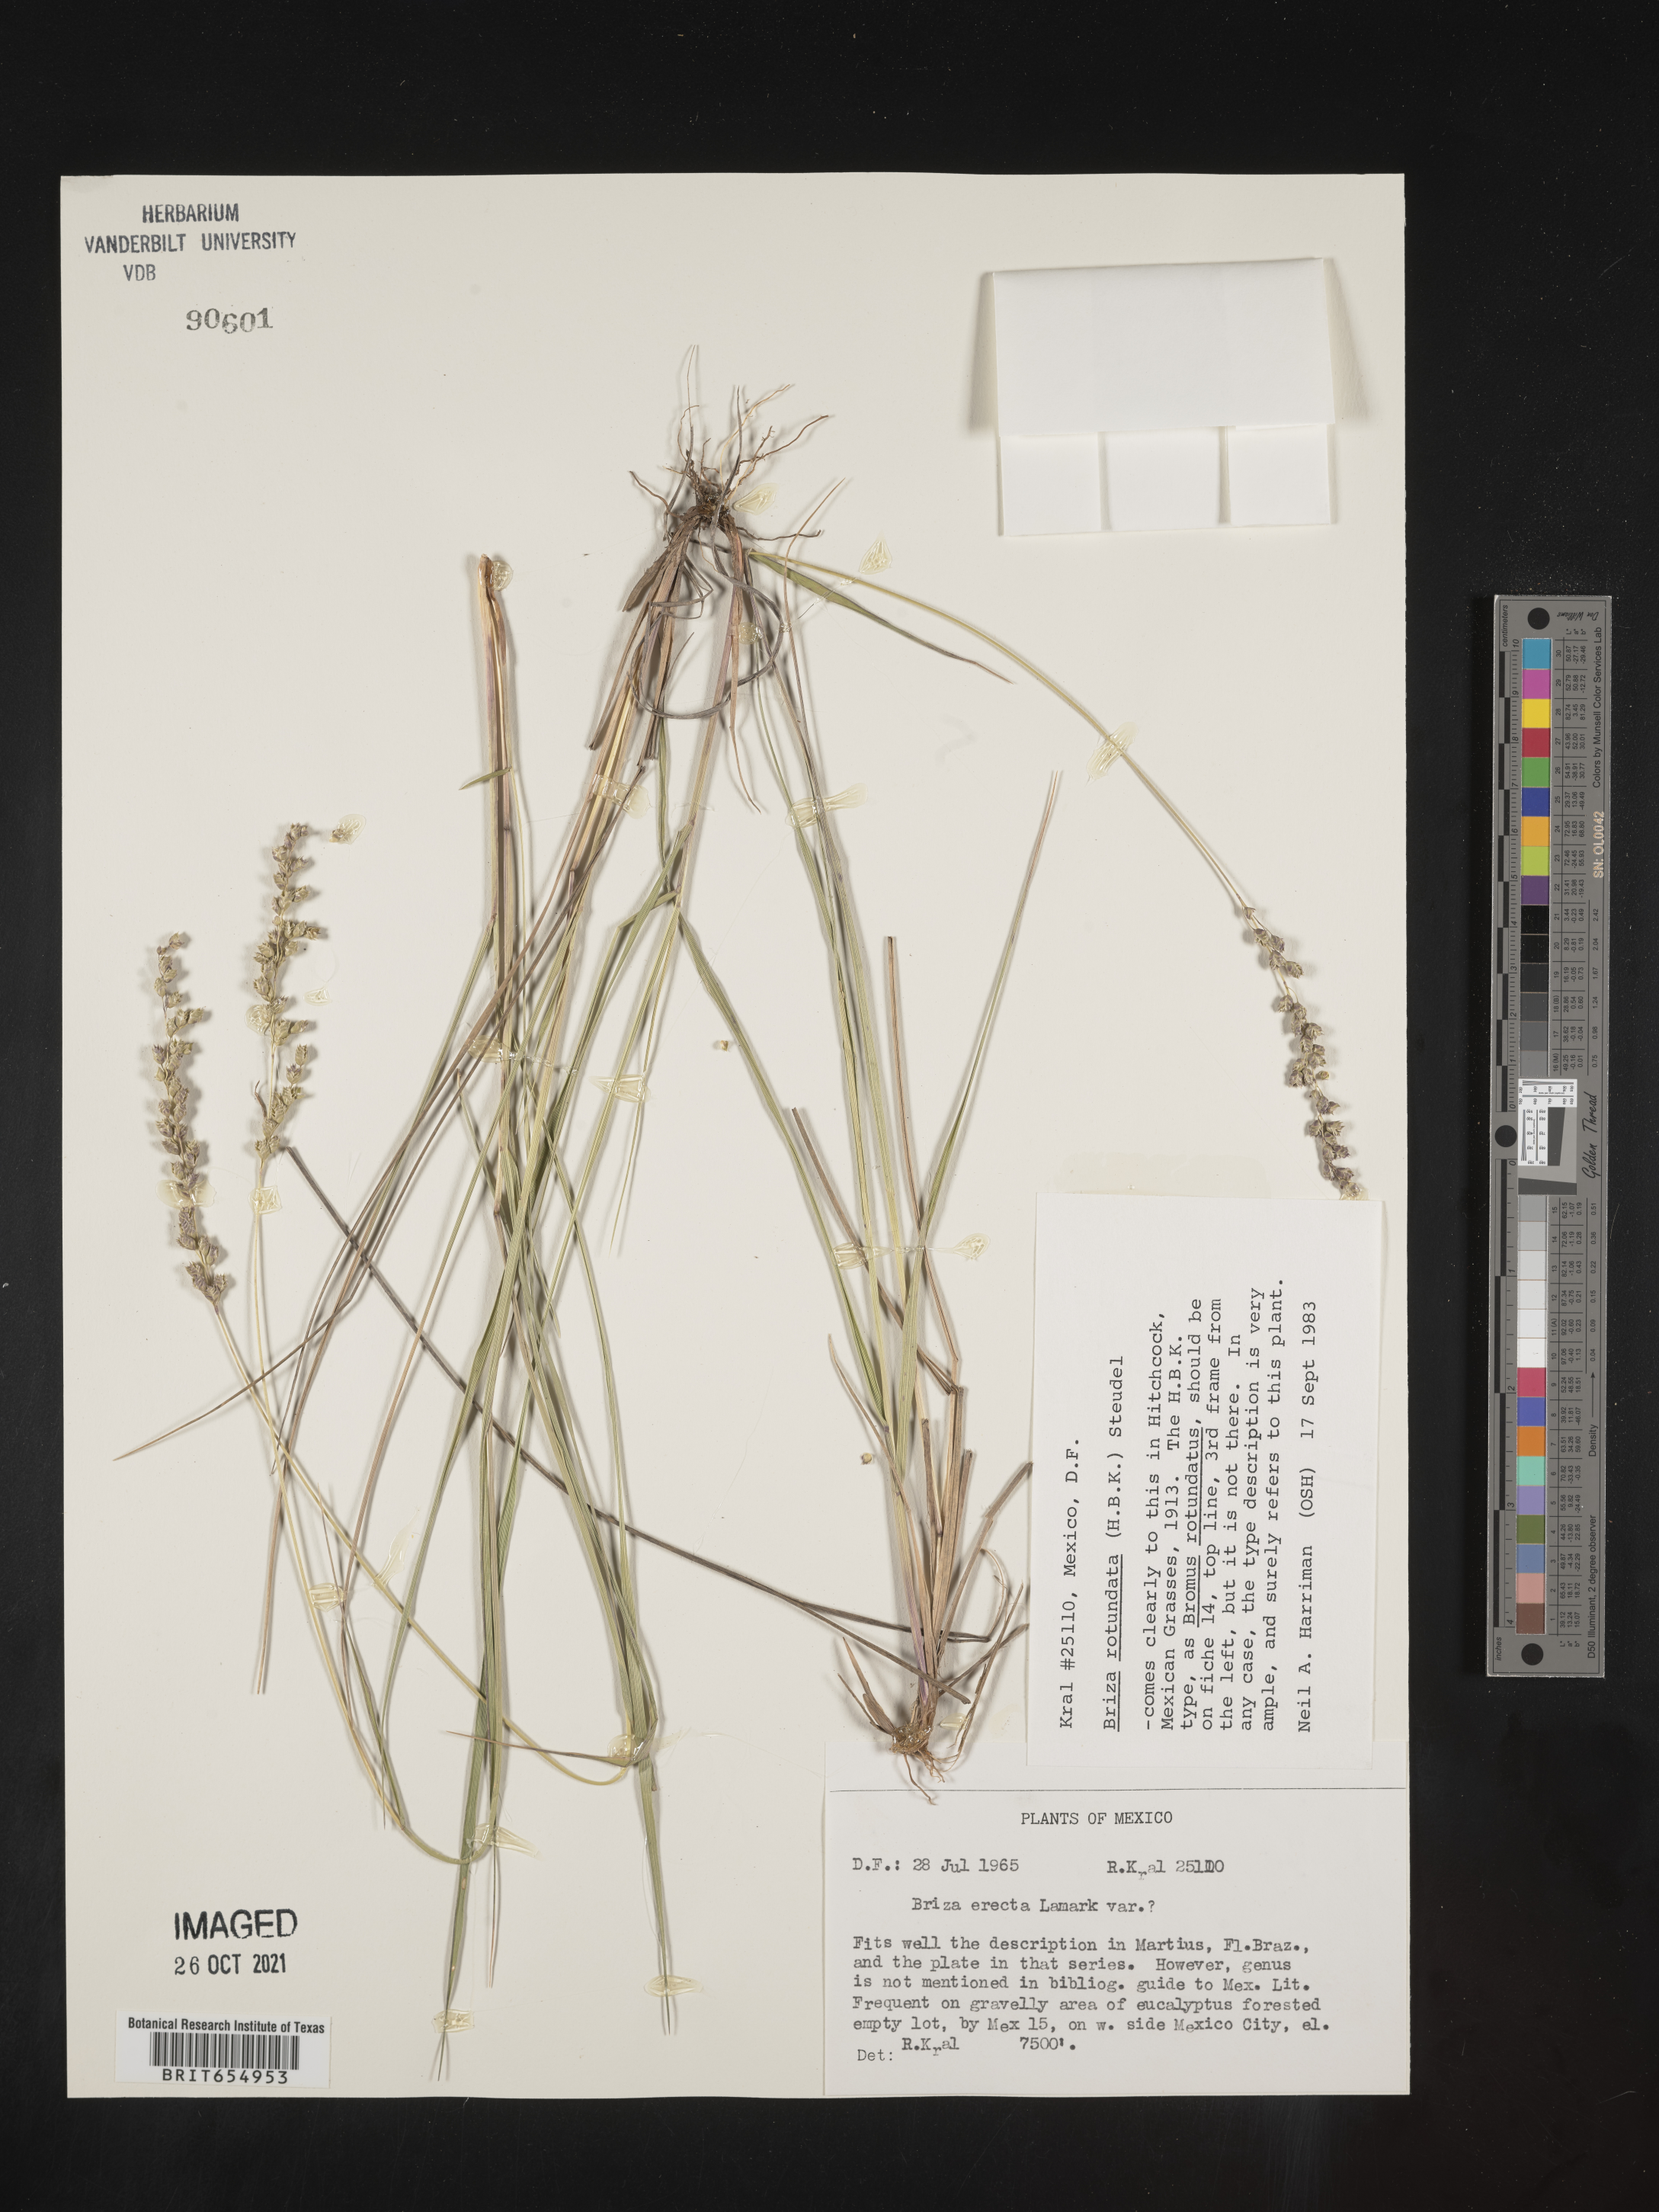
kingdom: Plantae
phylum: Tracheophyta
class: Liliopsida
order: Poales
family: Poaceae
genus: Briza
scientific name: Briza
